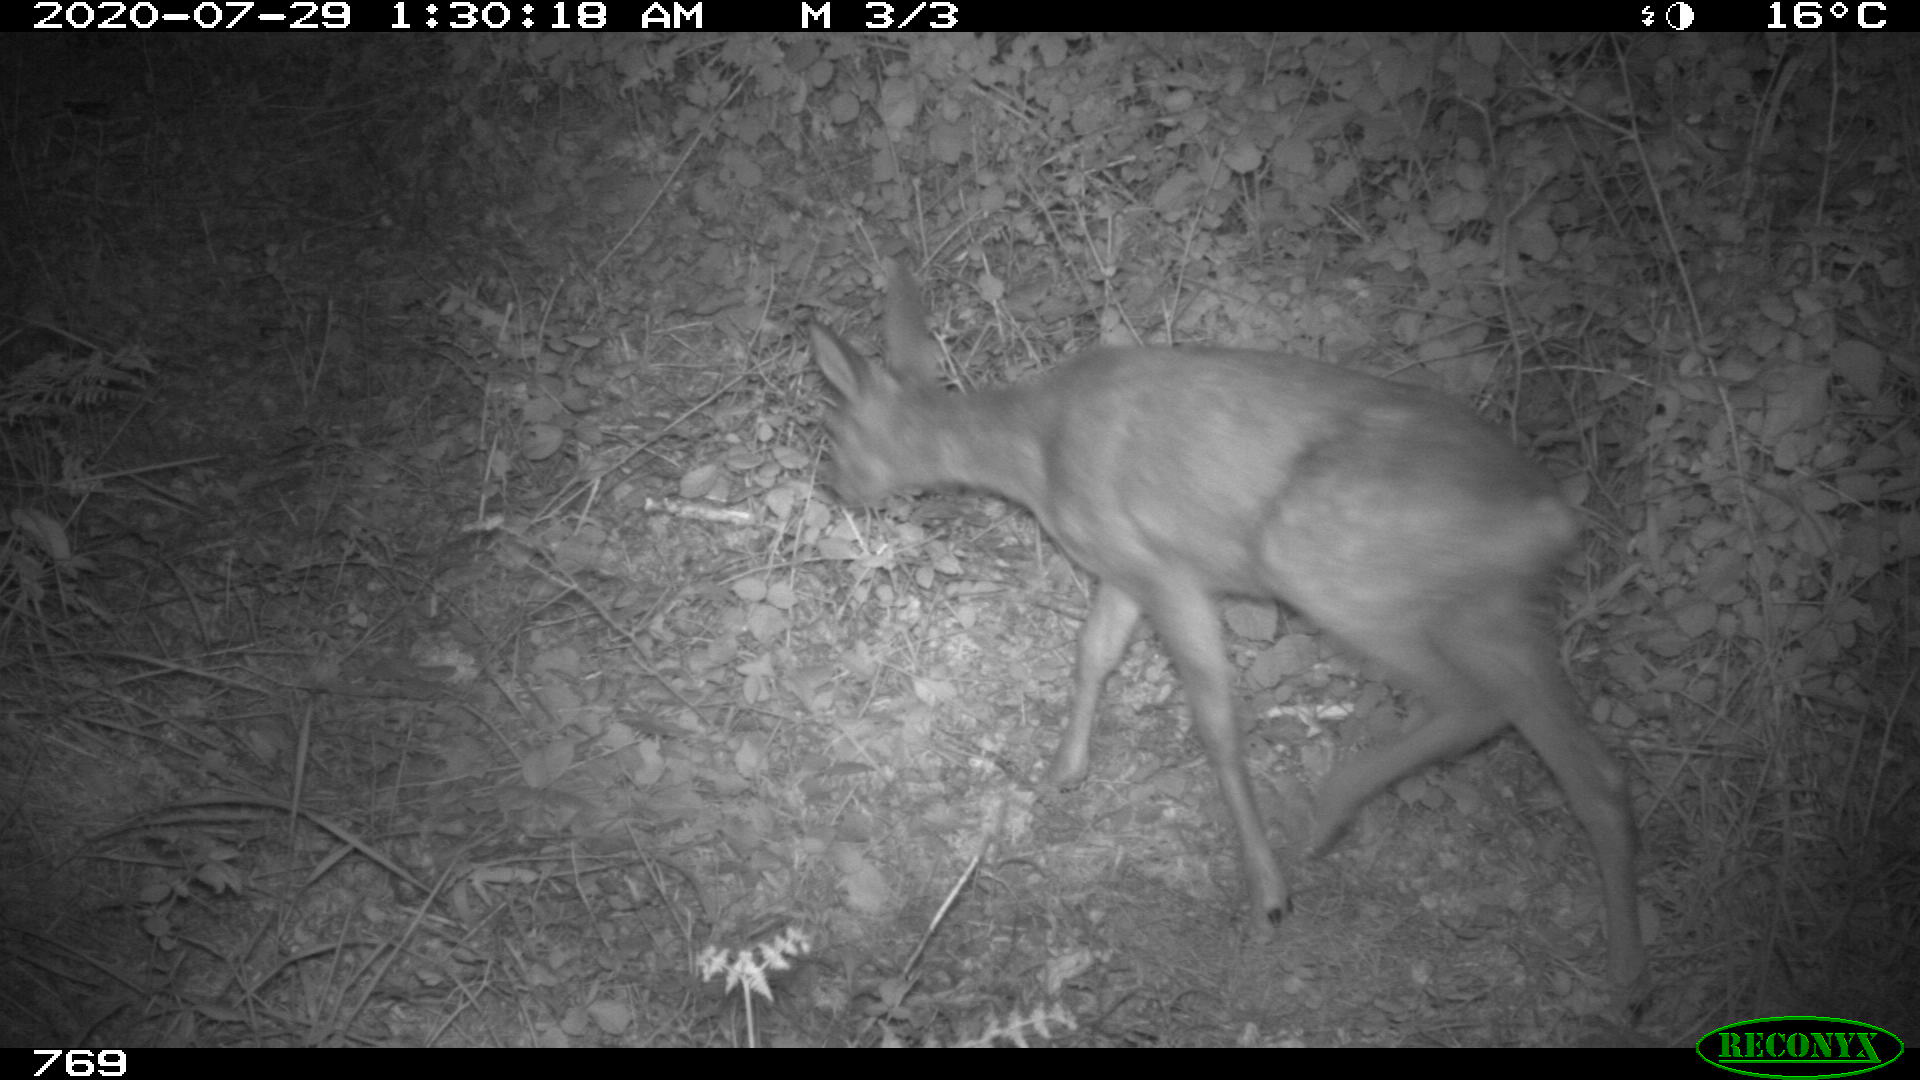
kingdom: Animalia
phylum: Chordata
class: Mammalia
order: Artiodactyla
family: Cervidae
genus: Capreolus
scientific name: Capreolus capreolus
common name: Western roe deer
